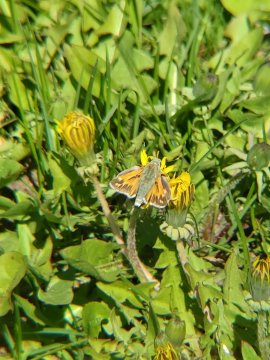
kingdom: Animalia
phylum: Arthropoda
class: Insecta
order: Lepidoptera
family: Hesperiidae
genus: Hesperia
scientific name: Hesperia juba
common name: Juba Skipper
